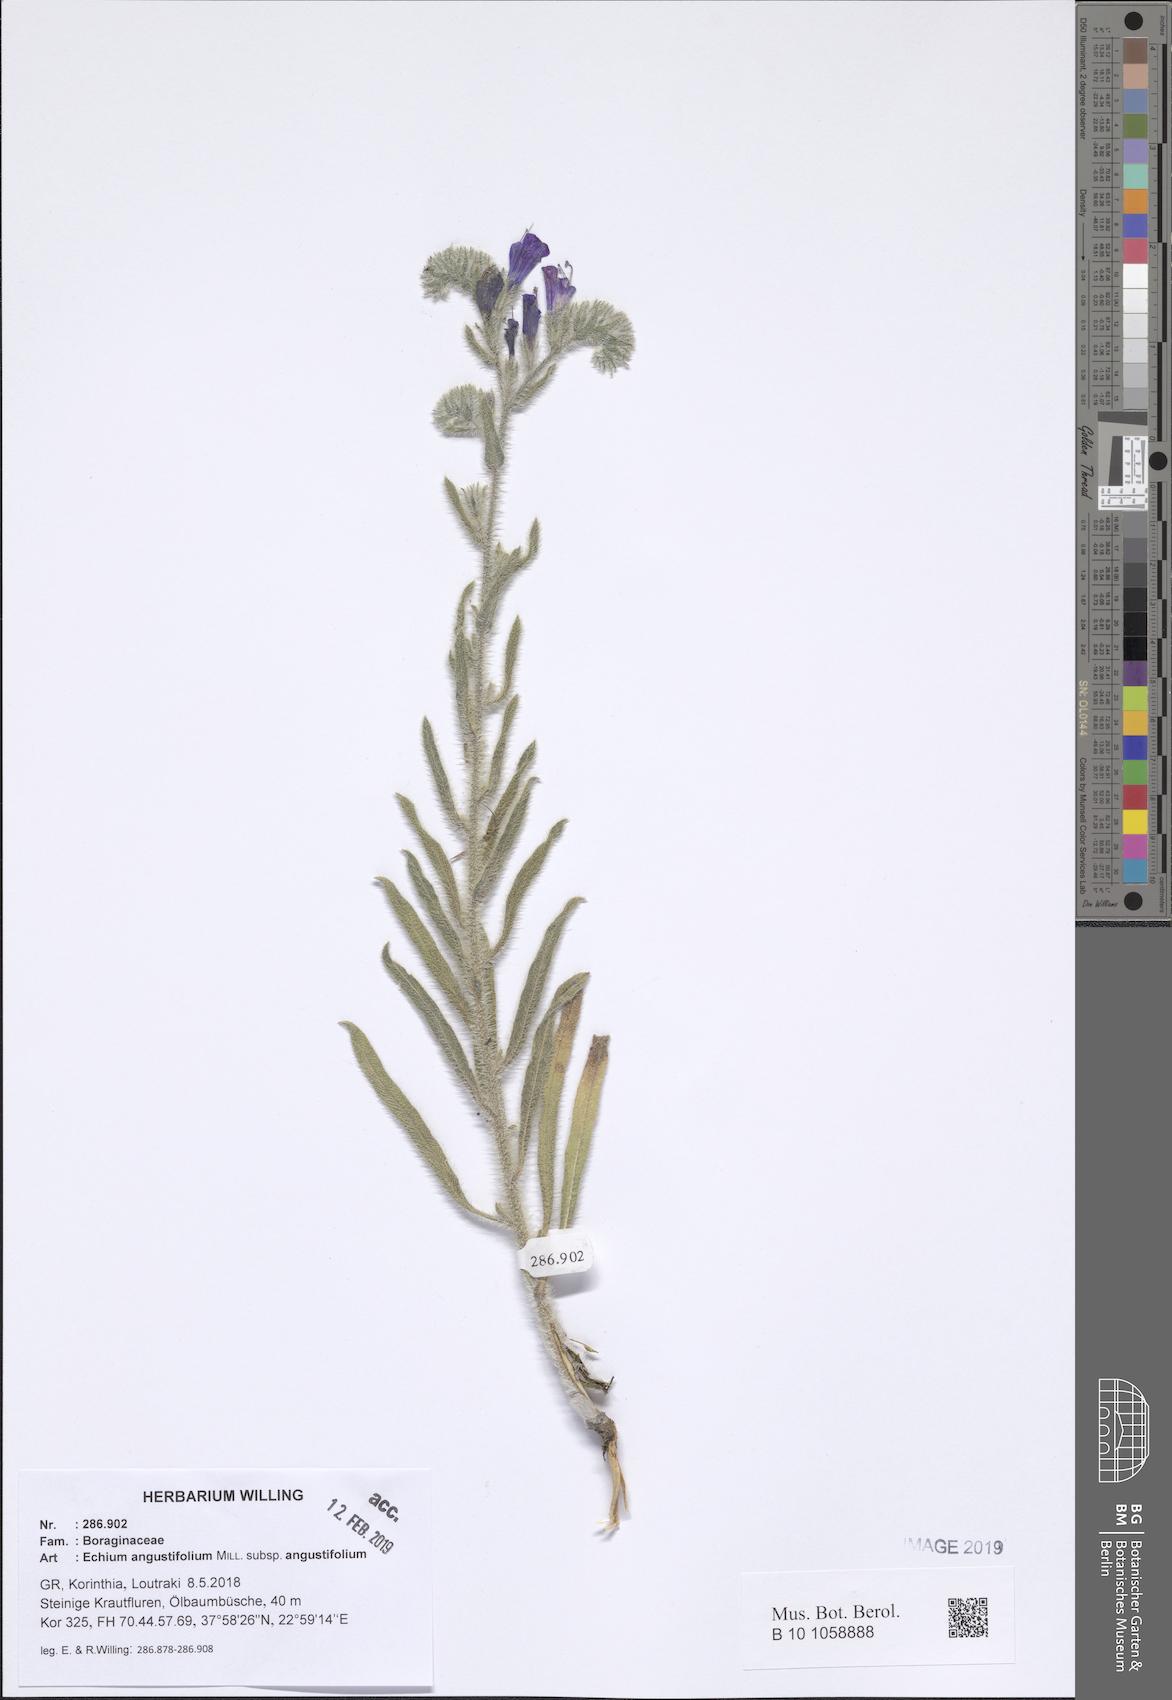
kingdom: Plantae
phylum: Tracheophyta
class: Magnoliopsida
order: Boraginales
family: Boraginaceae
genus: Echium
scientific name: Echium angustifolium
